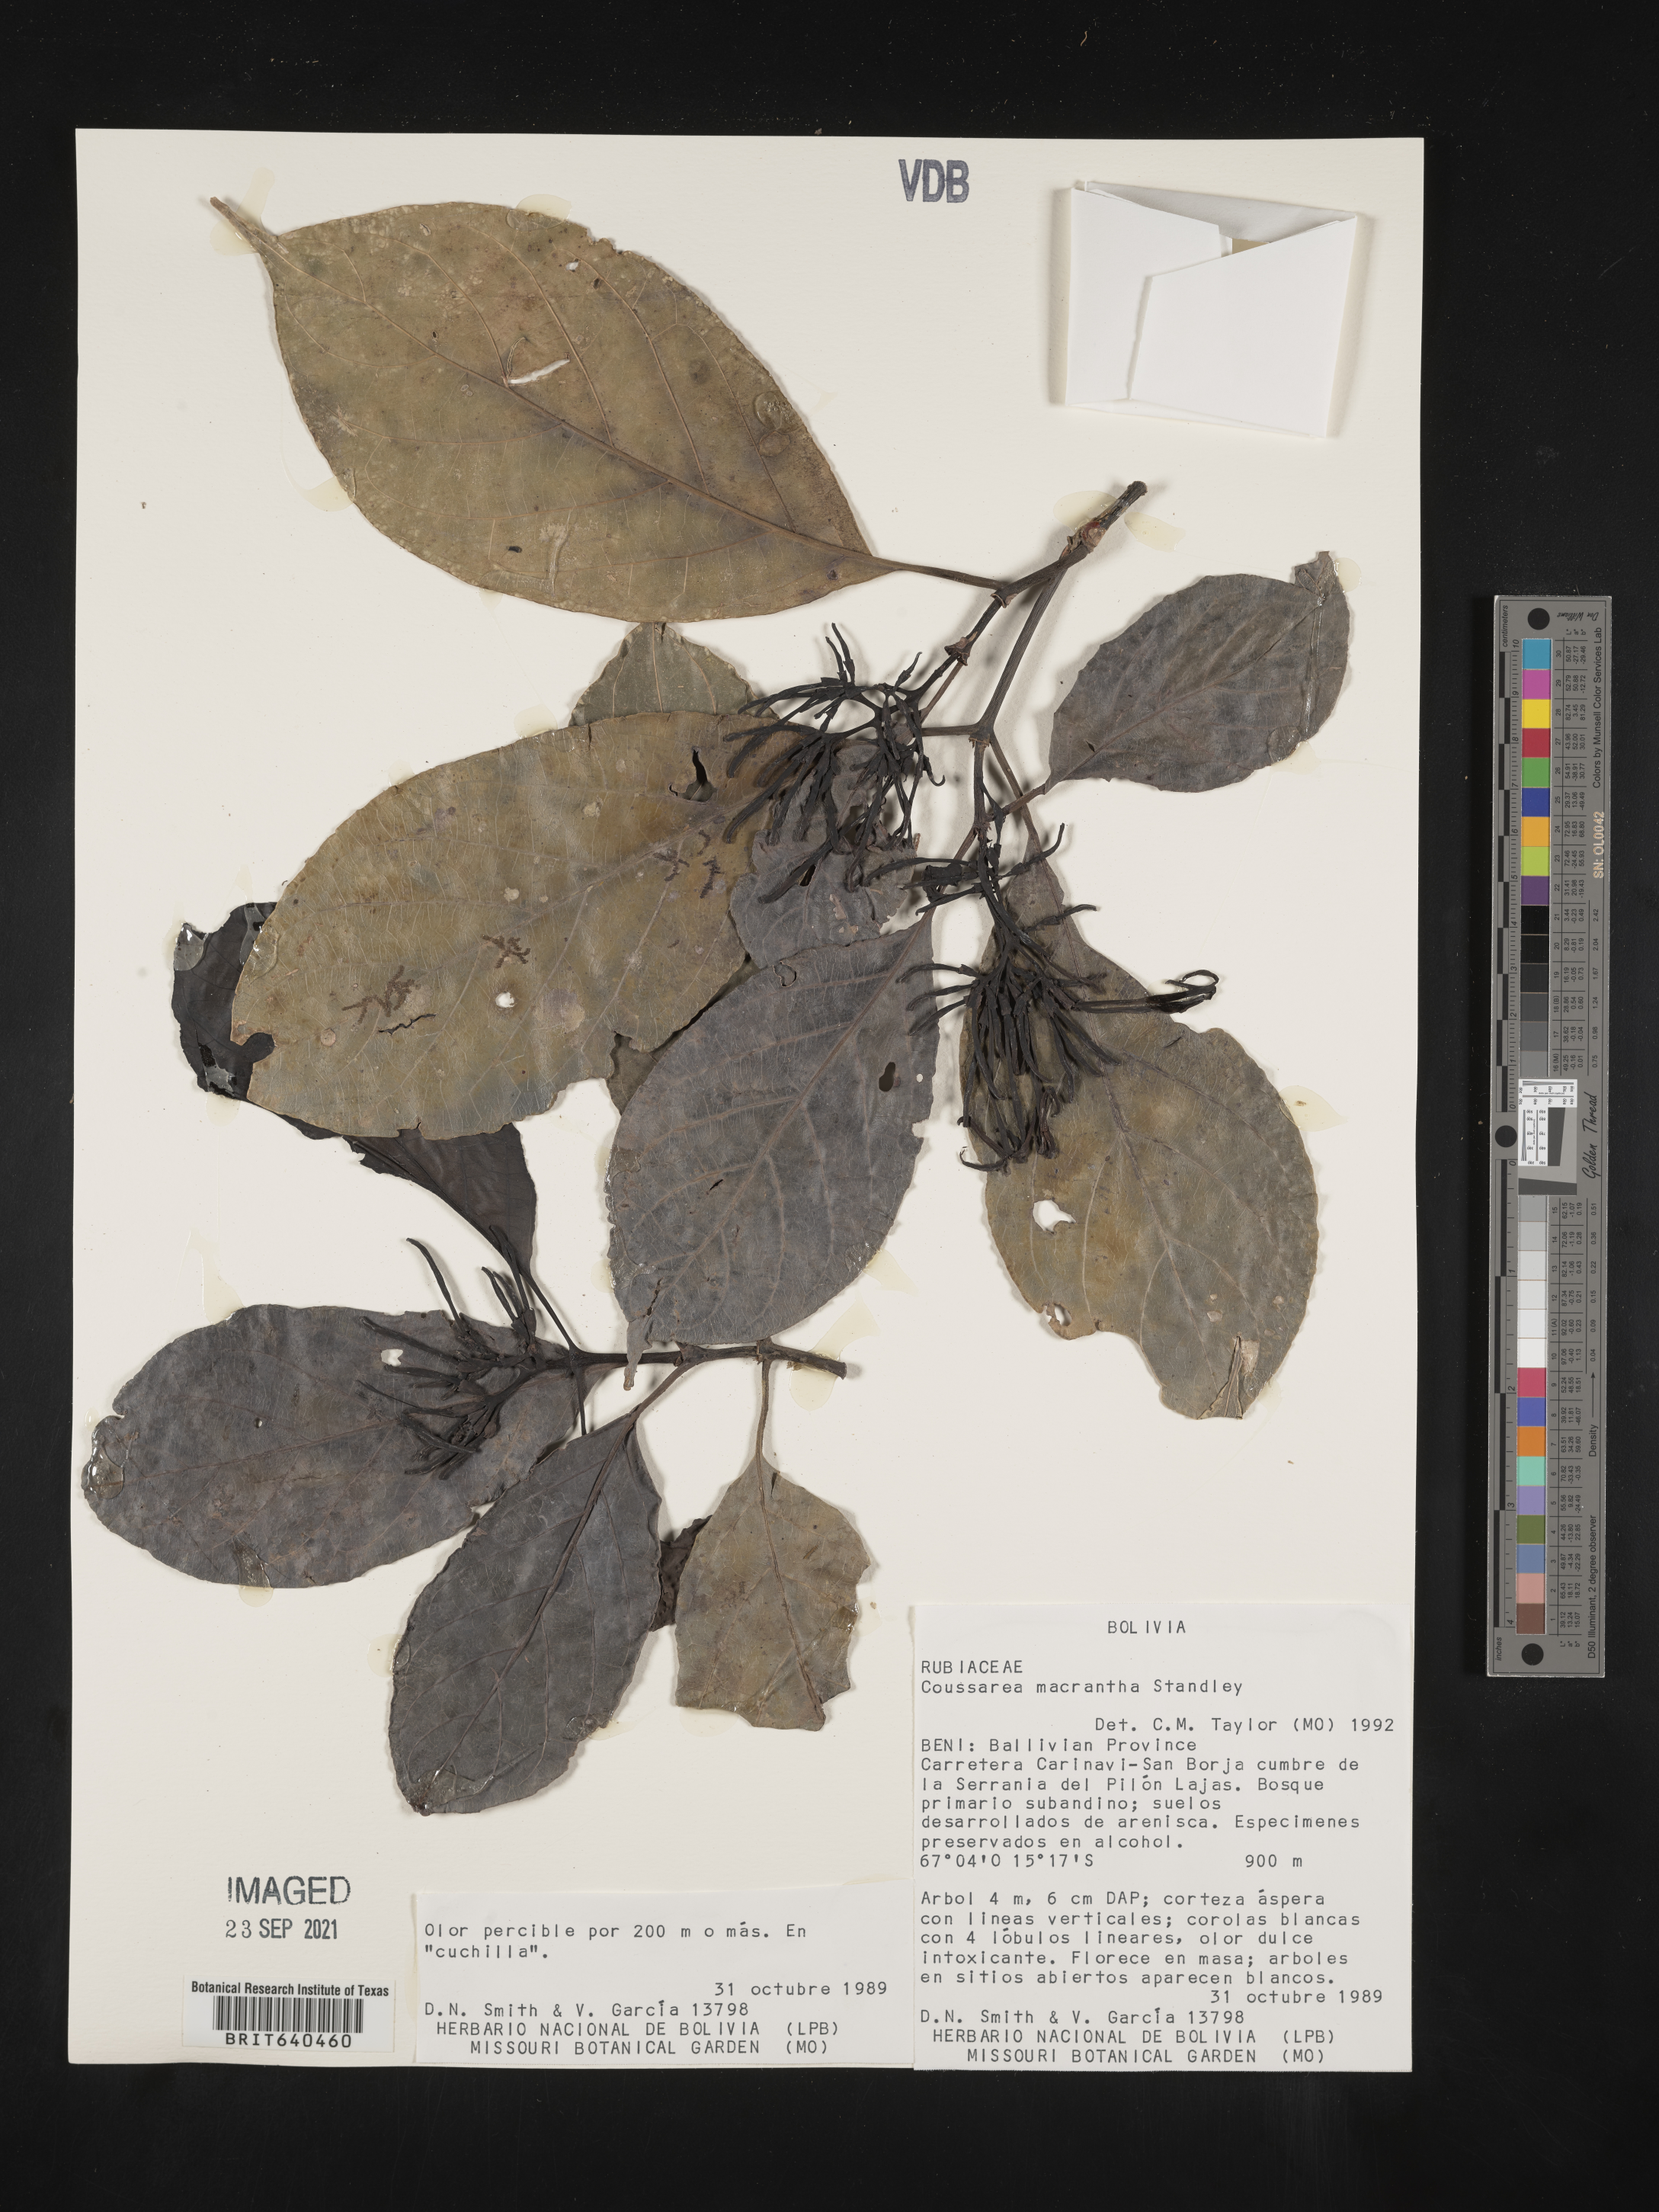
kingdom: Plantae
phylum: Tracheophyta
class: Magnoliopsida
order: Gentianales
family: Rubiaceae
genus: Coussarea
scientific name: Coussarea
